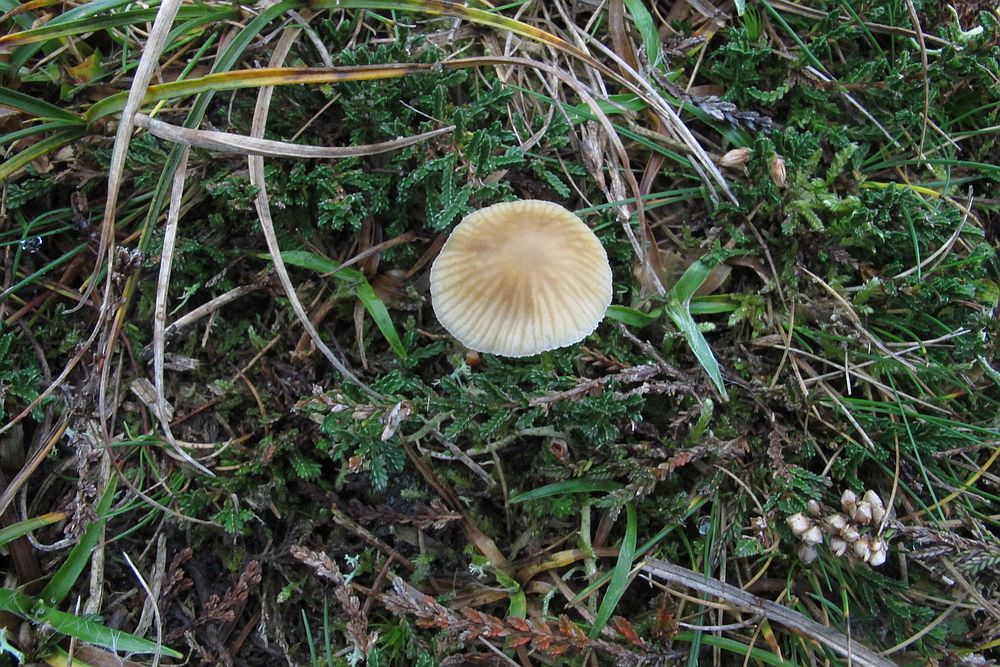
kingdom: Fungi
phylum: Basidiomycota
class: Agaricomycetes
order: Agaricales
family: Hymenogastraceae
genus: Galerina
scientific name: Galerina mniophila
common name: olivengul hjelmhat
